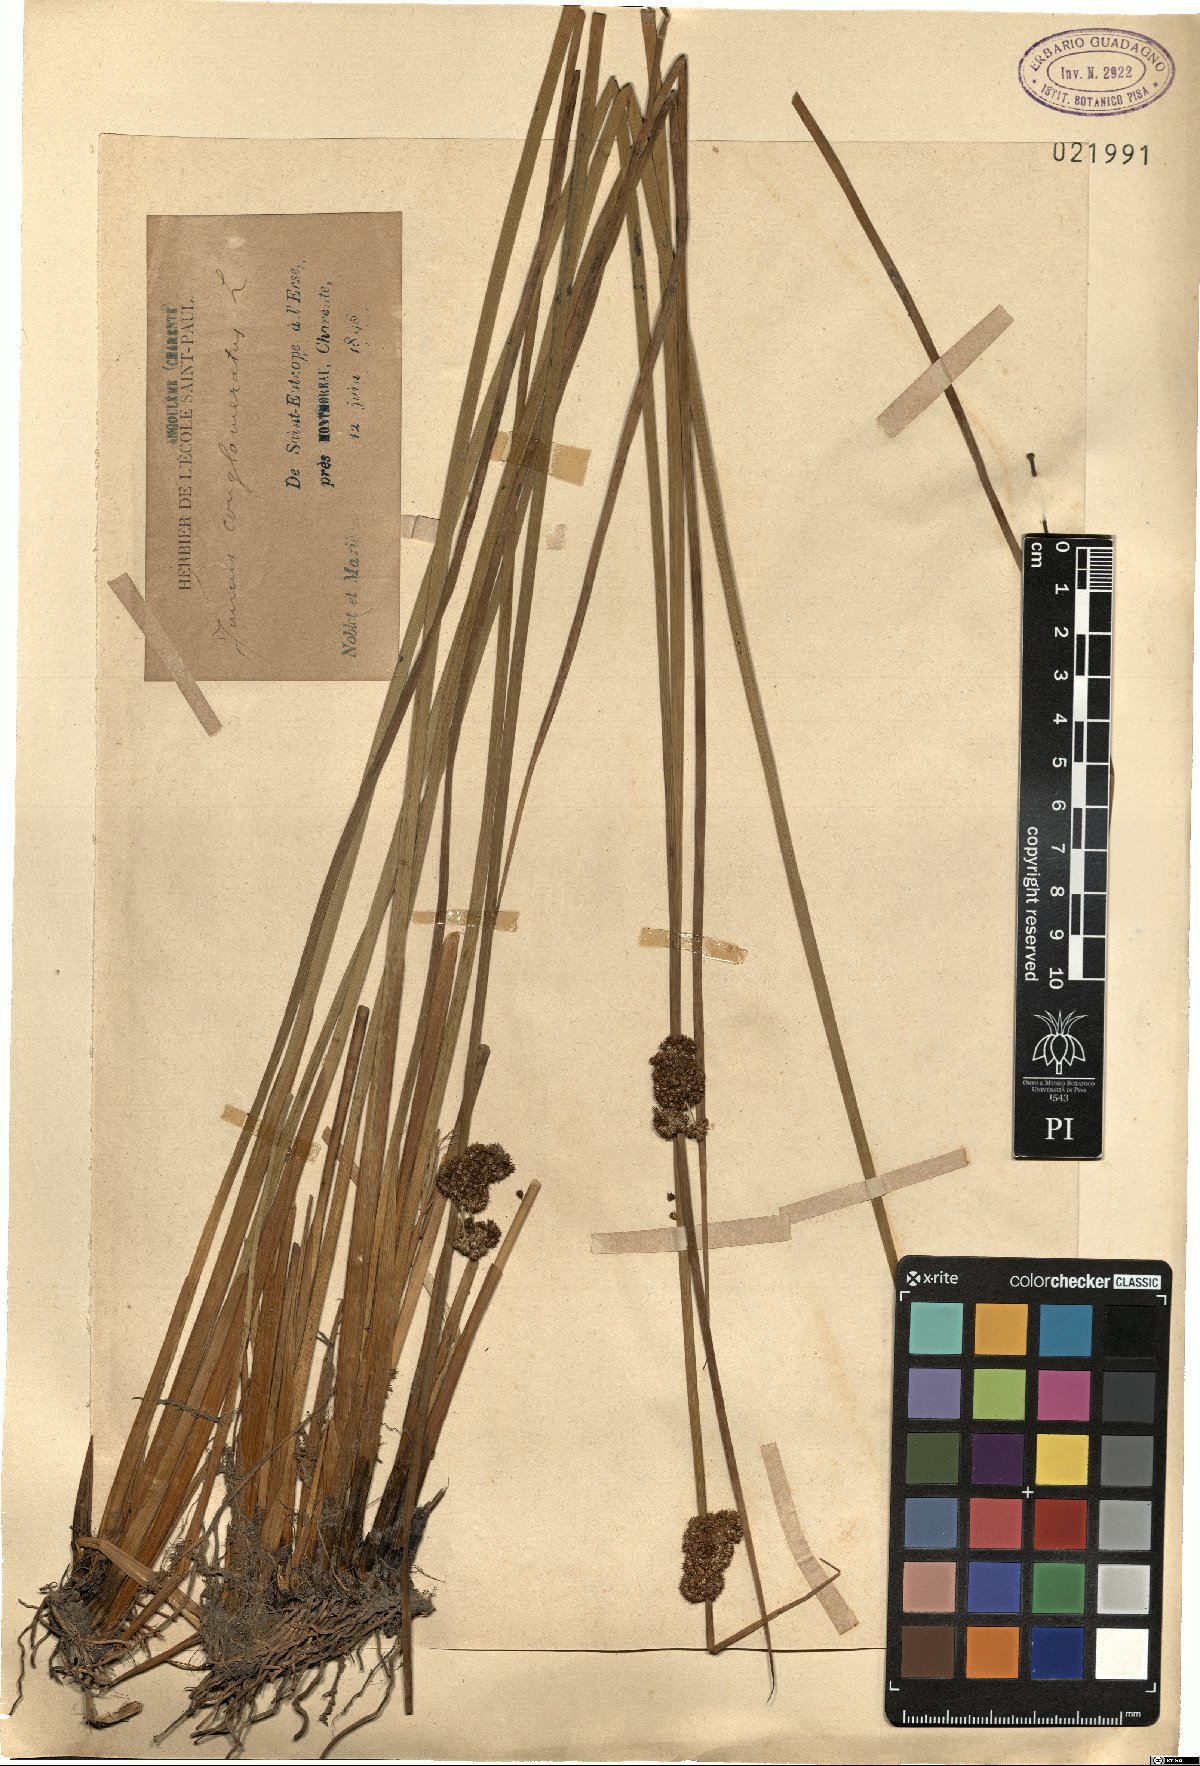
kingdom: Plantae
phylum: Tracheophyta
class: Liliopsida
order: Poales
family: Juncaceae
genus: Juncus
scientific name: Juncus conglomeratus
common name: Compact rush
